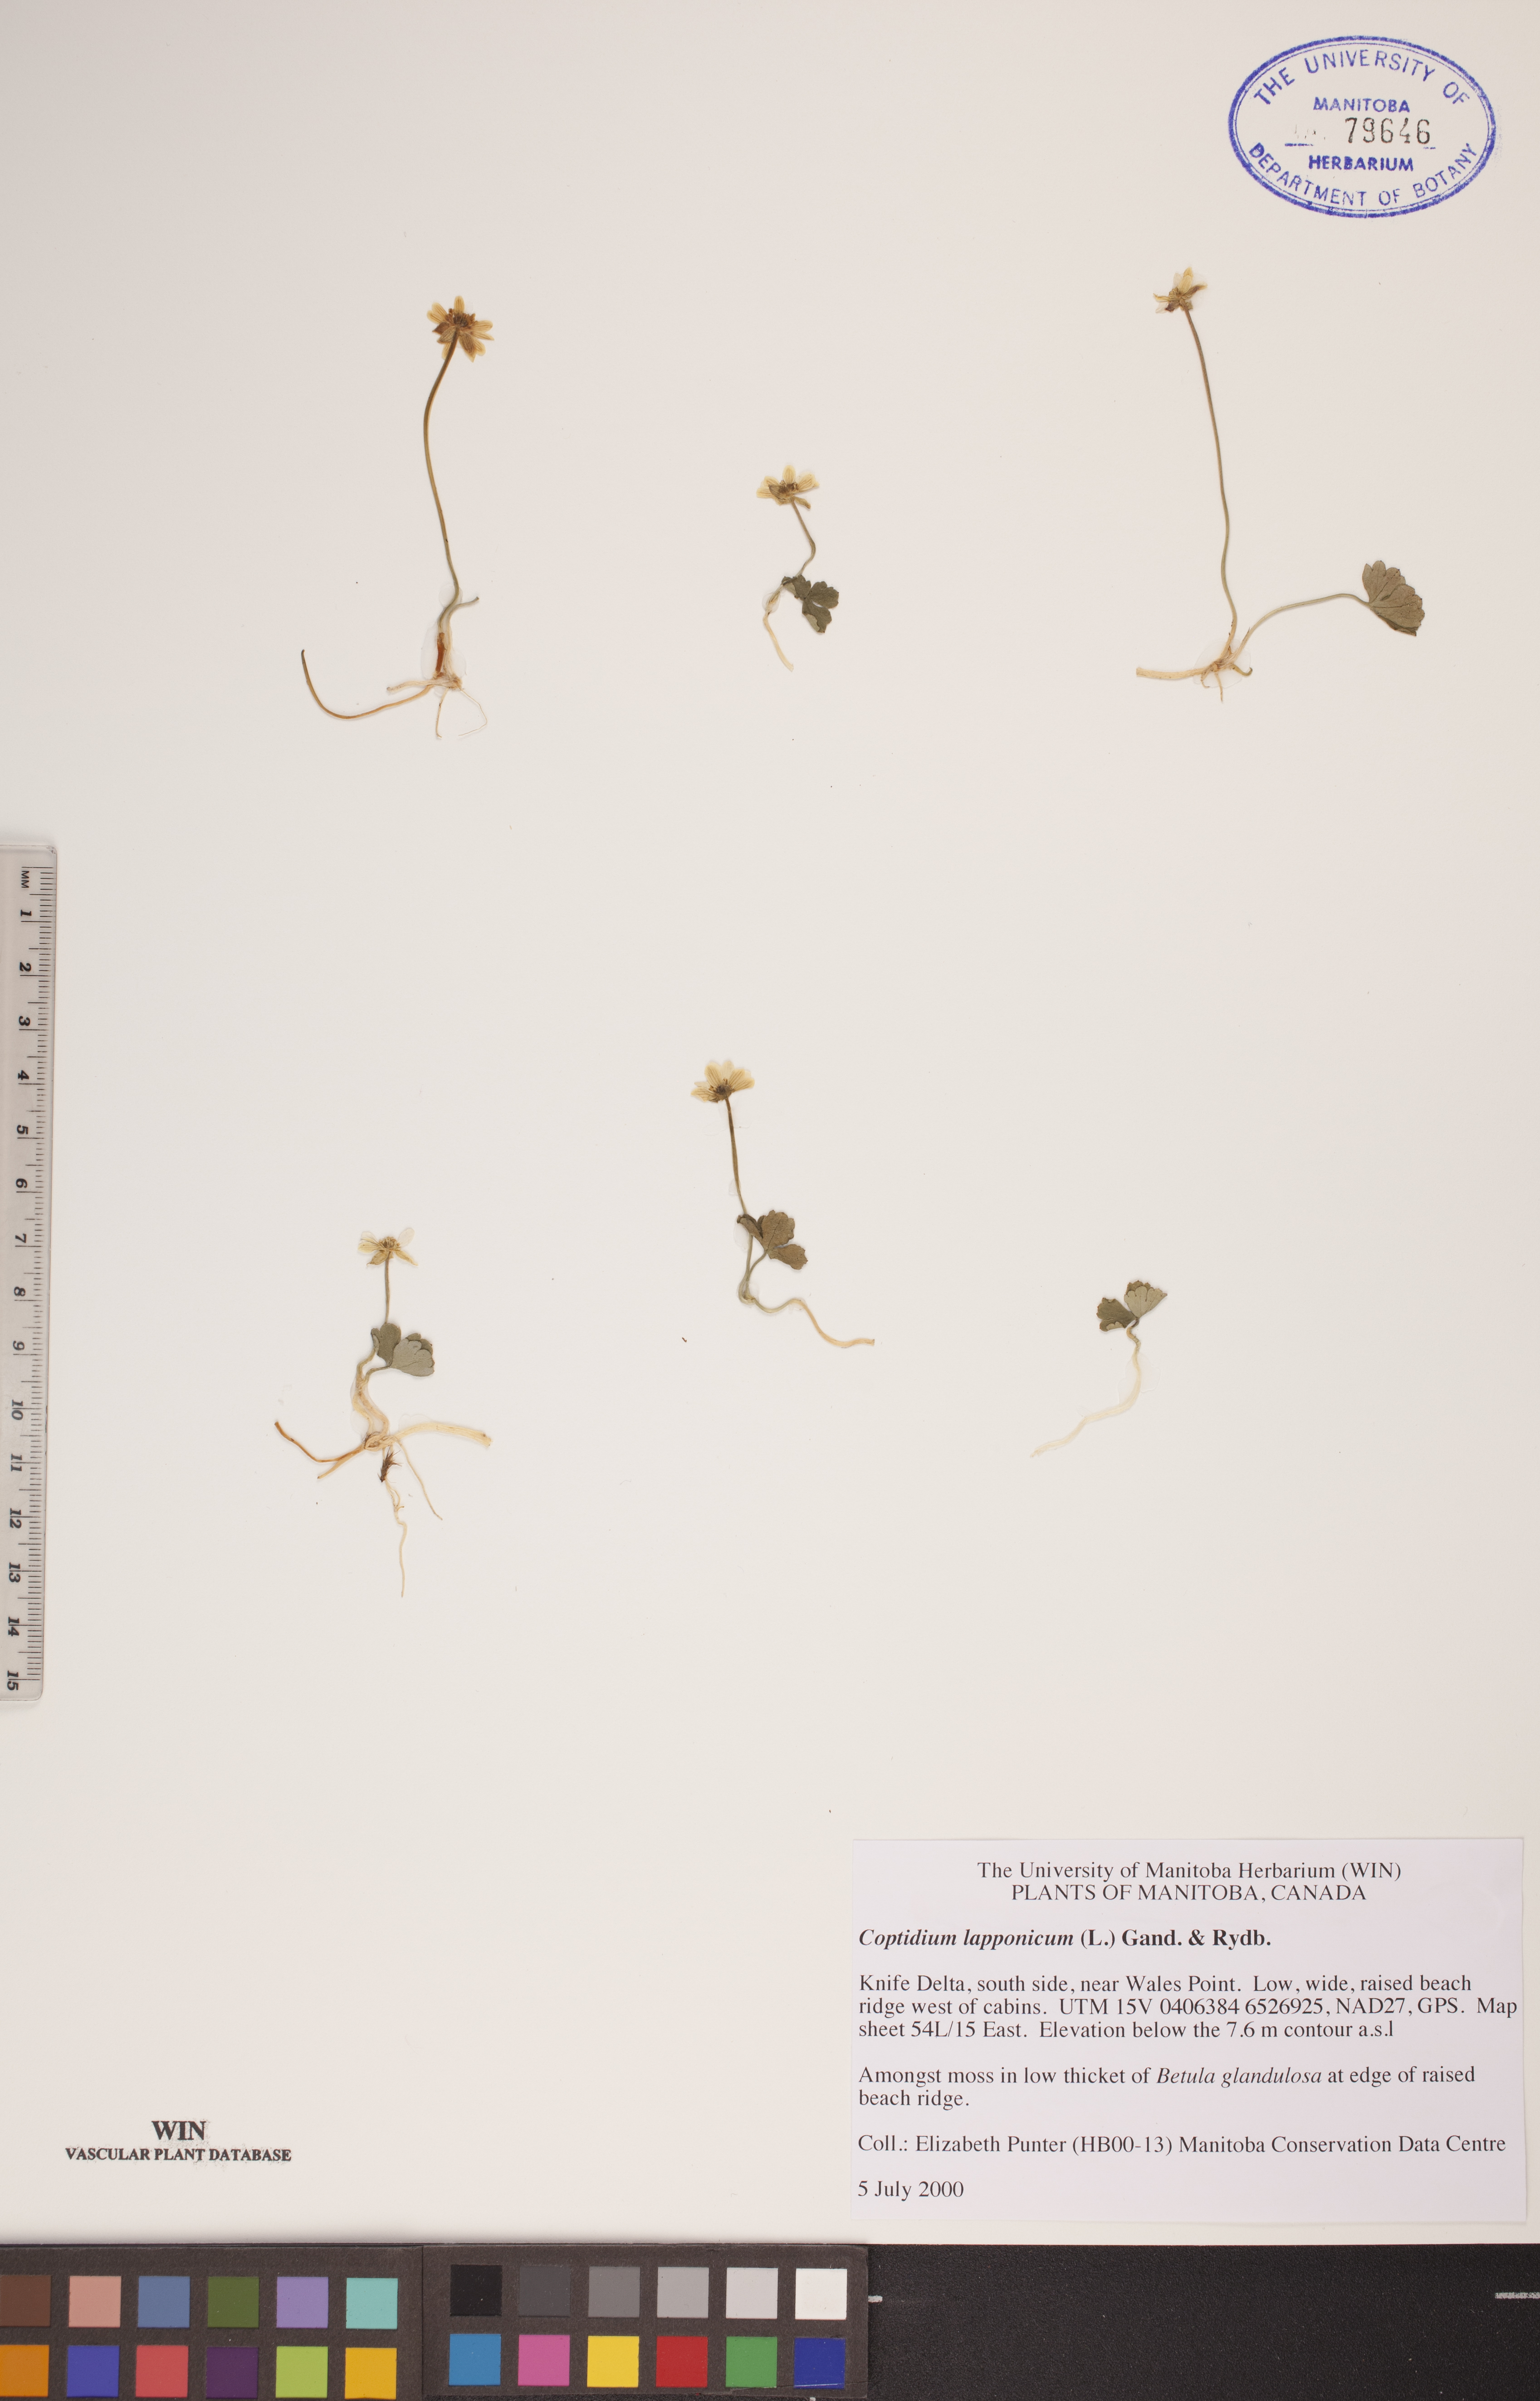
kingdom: Plantae
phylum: Tracheophyta
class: Magnoliopsida
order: Ranunculales
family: Ranunculaceae
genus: Coptidium
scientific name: Coptidium lapponicum
